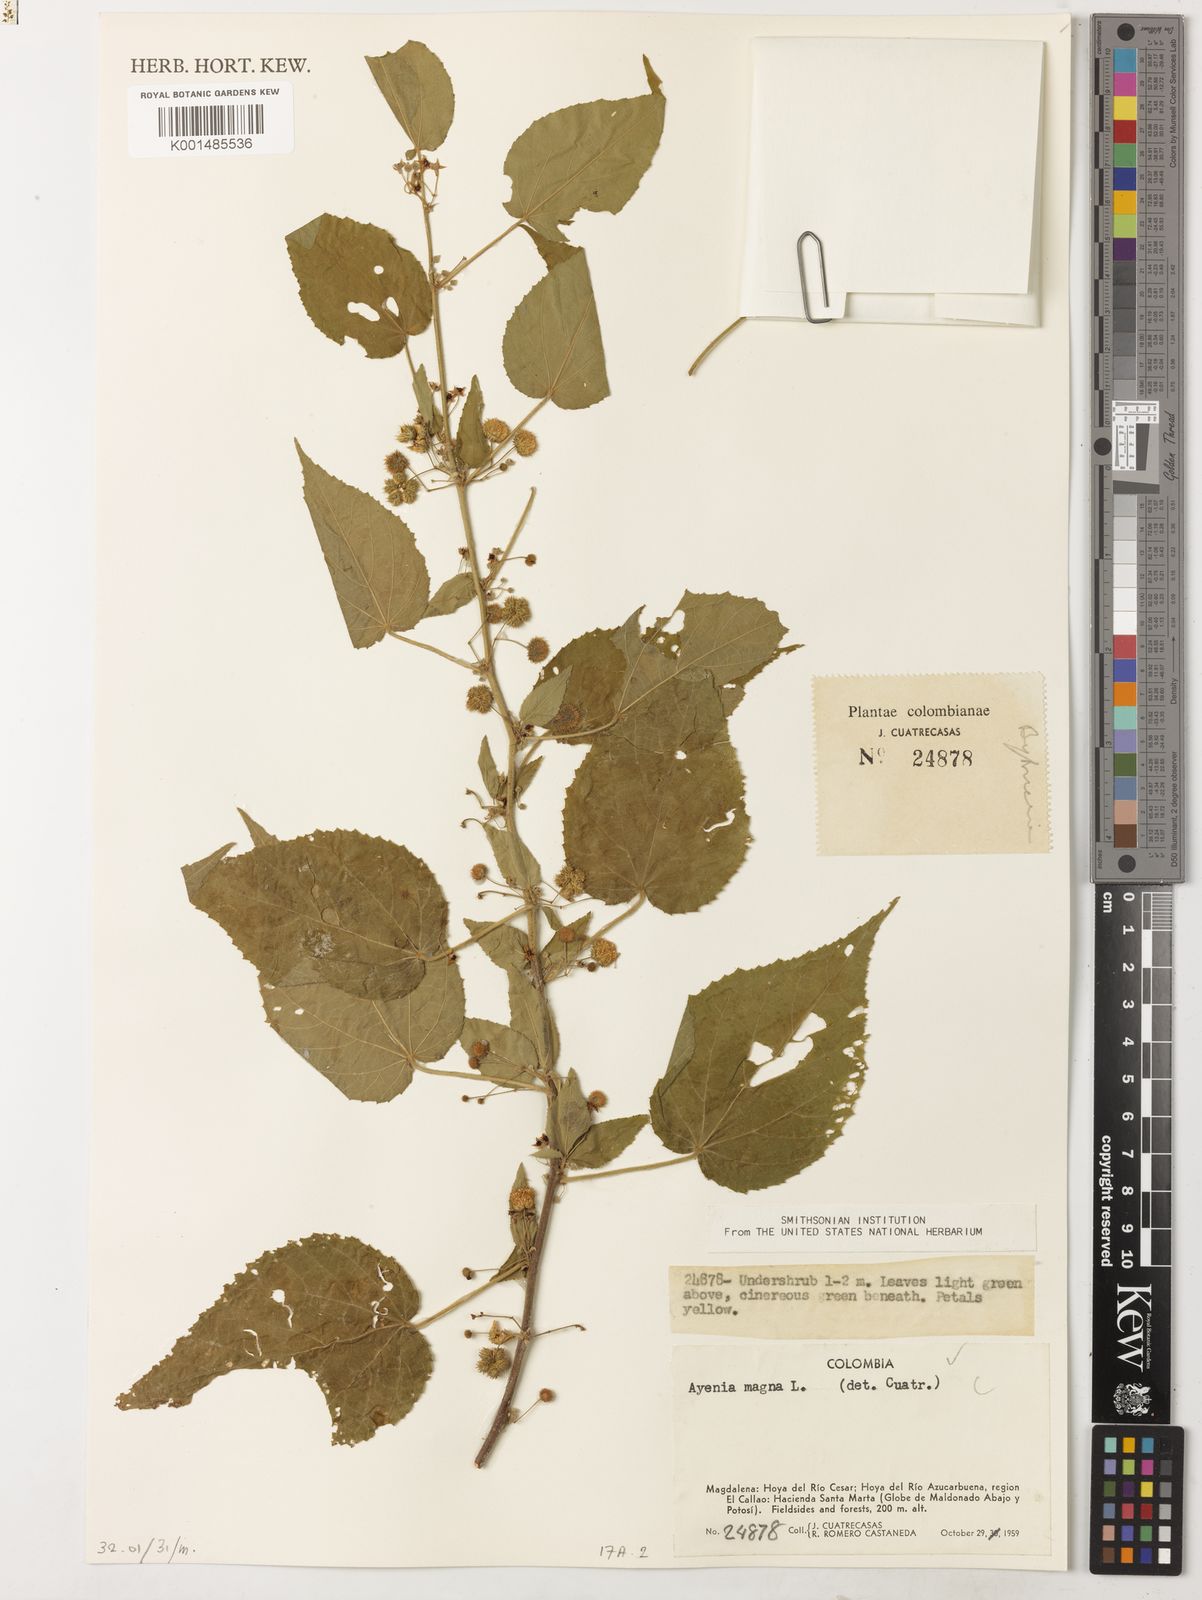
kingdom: Plantae
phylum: Tracheophyta
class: Magnoliopsida
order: Malvales
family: Malvaceae
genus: Ayenia
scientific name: Ayenia magna
